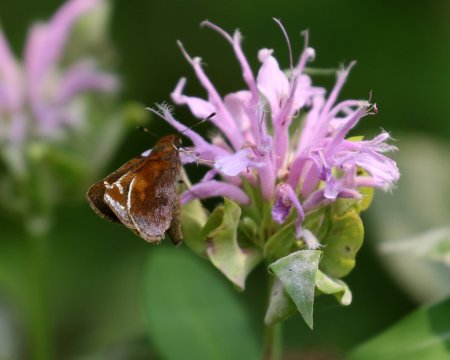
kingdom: Animalia
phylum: Arthropoda
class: Insecta
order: Lepidoptera
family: Hesperiidae
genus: Lon
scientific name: Lon zabulon
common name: Zabulon Skipper
